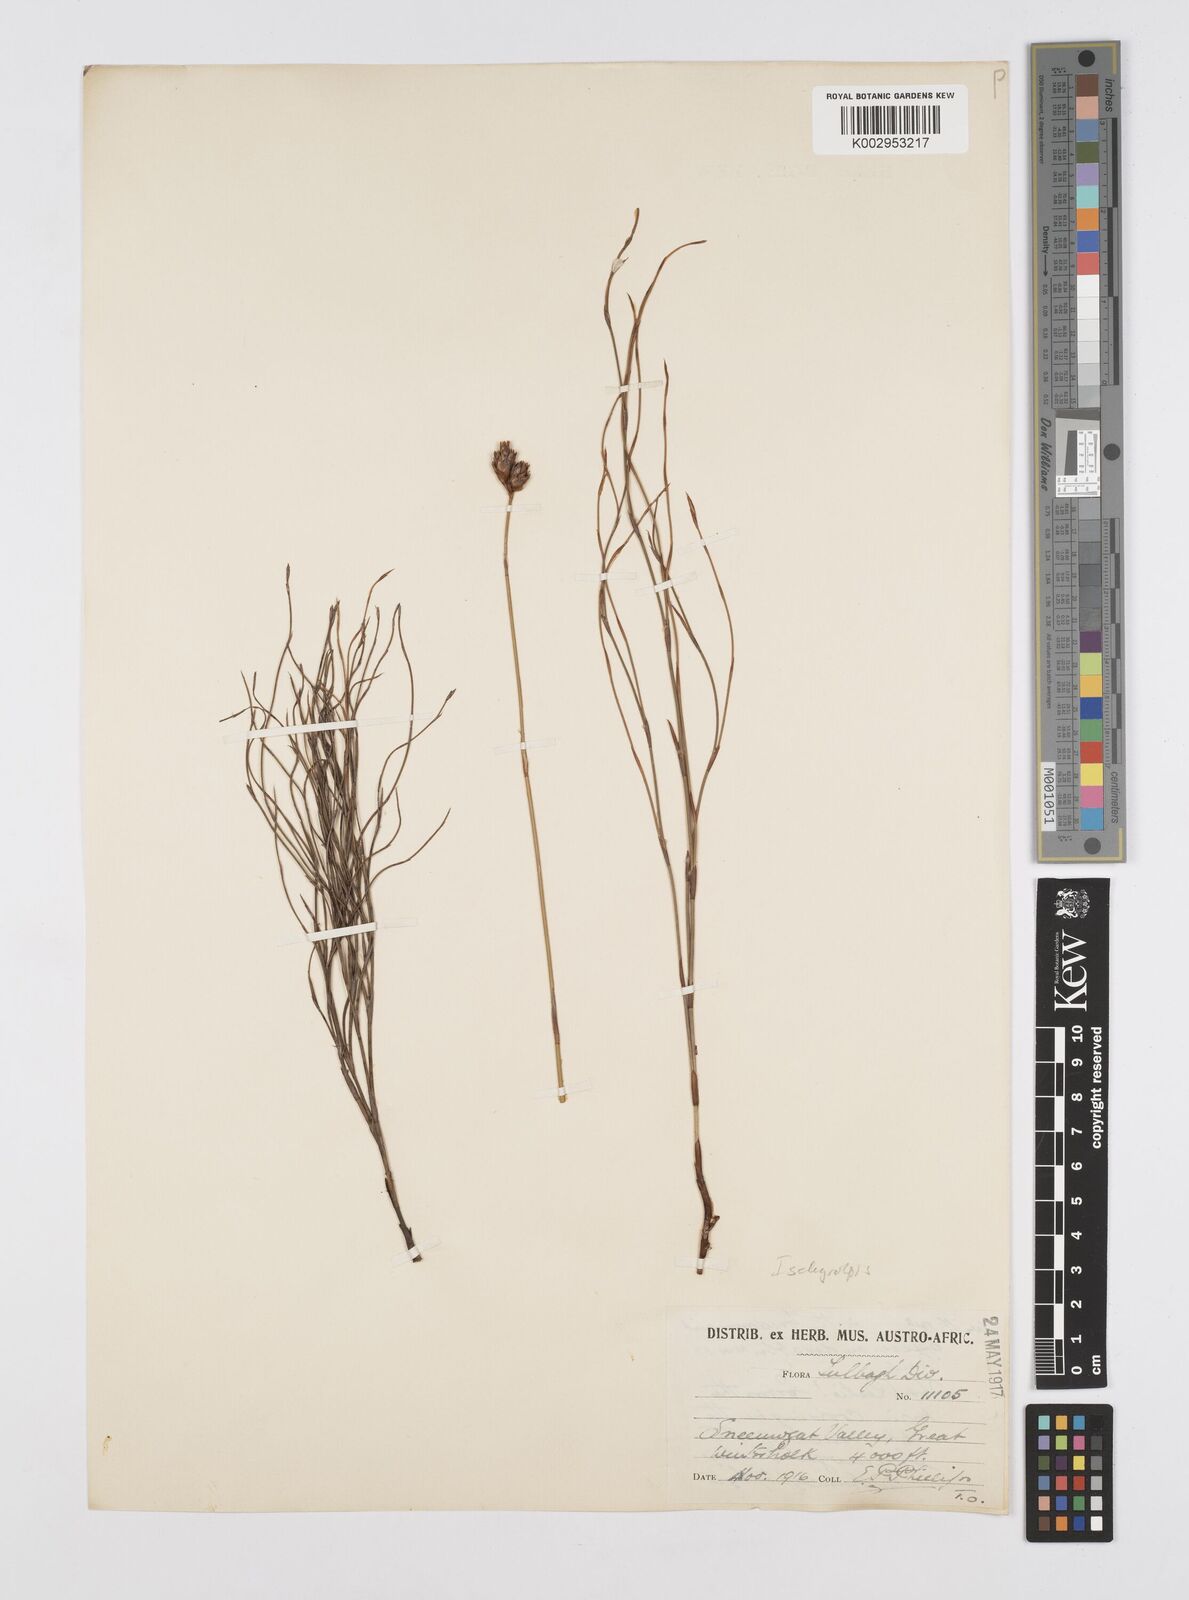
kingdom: Plantae
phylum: Tracheophyta
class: Liliopsida
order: Poales
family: Restionaceae
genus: Restio
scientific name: Restio
